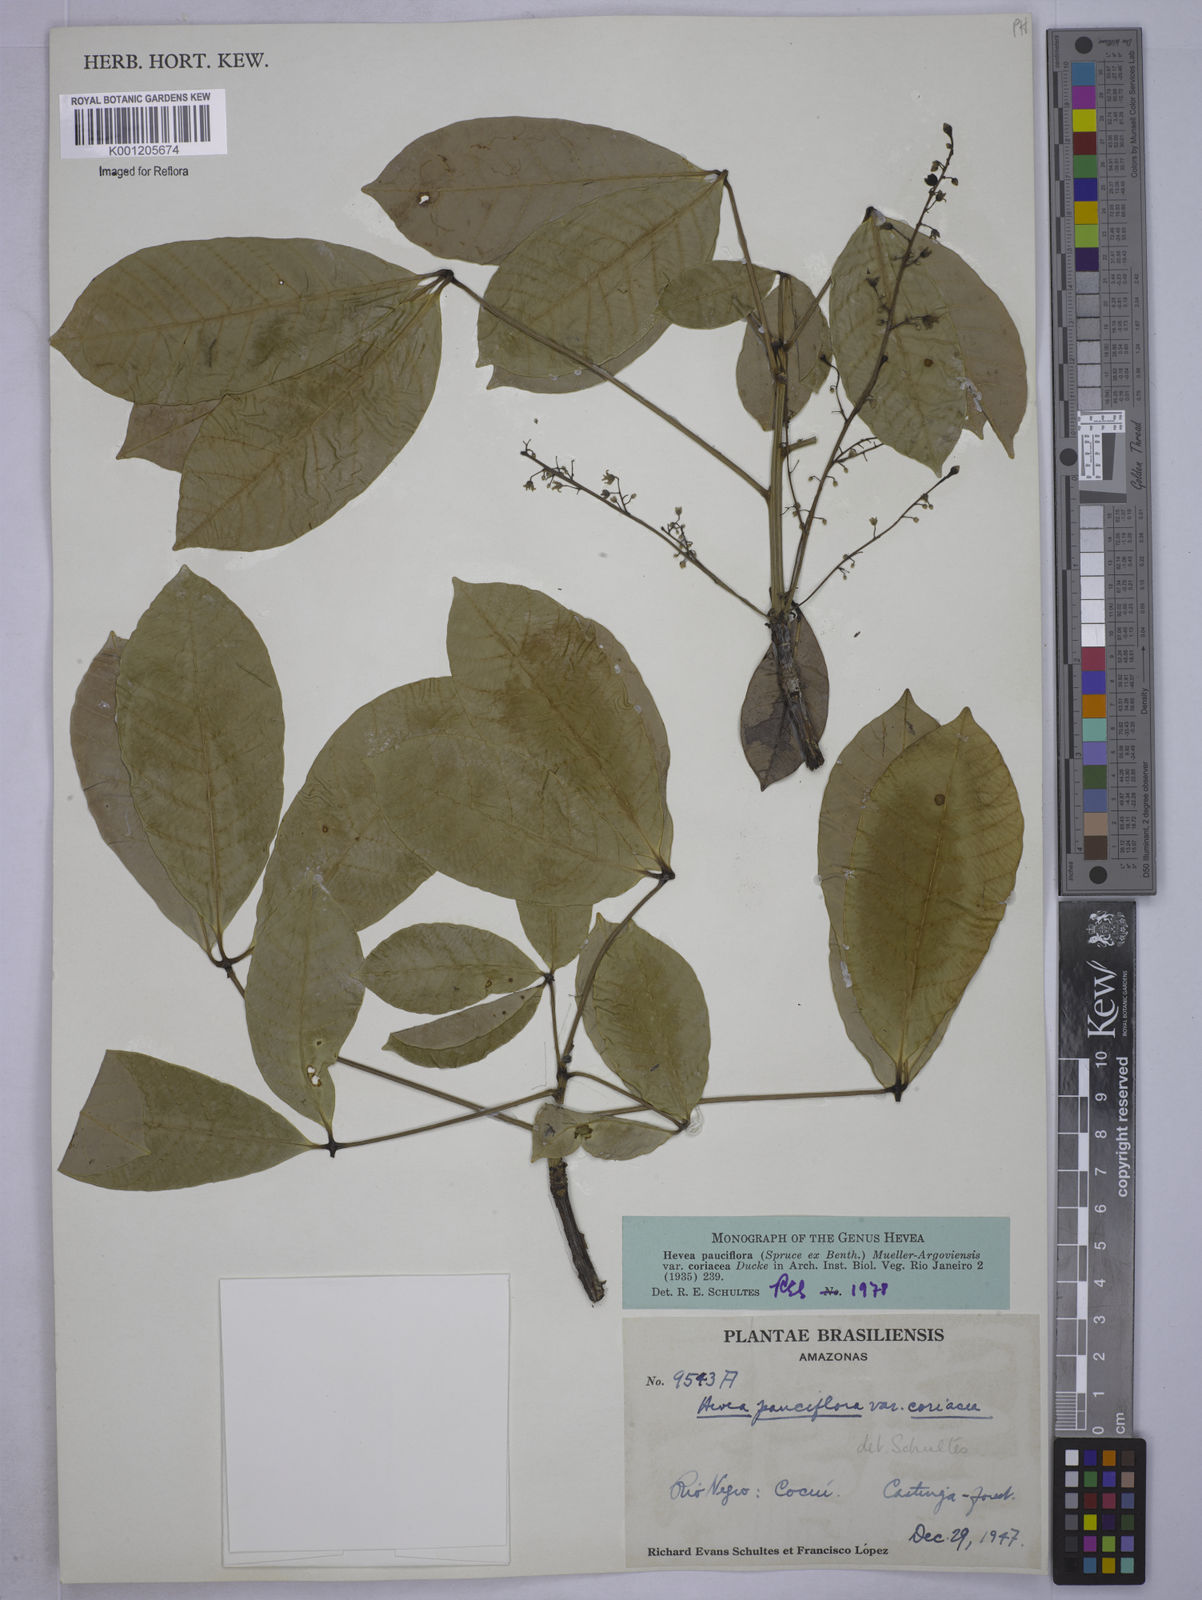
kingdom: Plantae
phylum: Tracheophyta
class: Magnoliopsida
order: Malpighiales
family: Euphorbiaceae
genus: Hevea
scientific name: Hevea pauciflora
